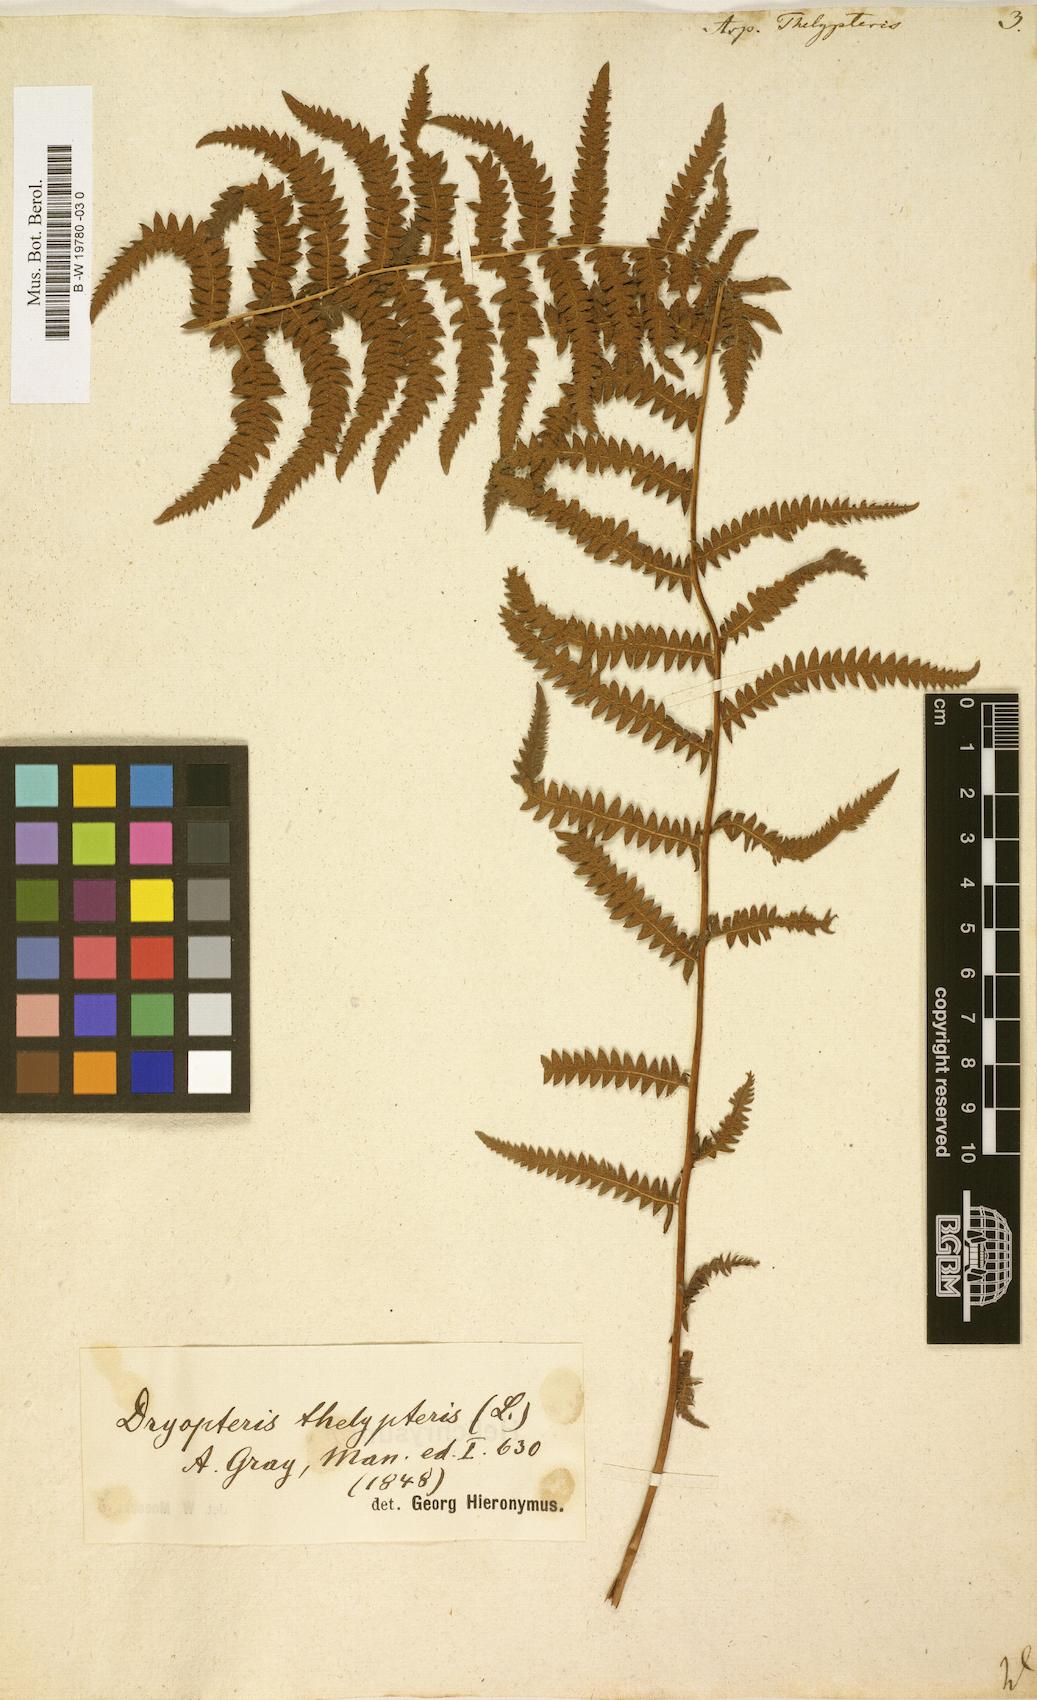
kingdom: Plantae
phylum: Tracheophyta
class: Polypodiopsida
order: Polypodiales
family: Thelypteridaceae
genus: Thelypteris
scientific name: Thelypteris palustris
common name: Marsh fern
